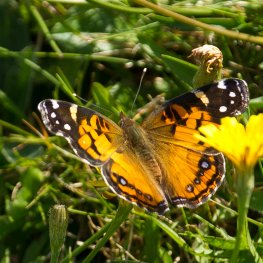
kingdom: Animalia
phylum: Arthropoda
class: Insecta
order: Lepidoptera
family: Nymphalidae
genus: Vanessa
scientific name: Vanessa virginiensis
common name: American Lady
